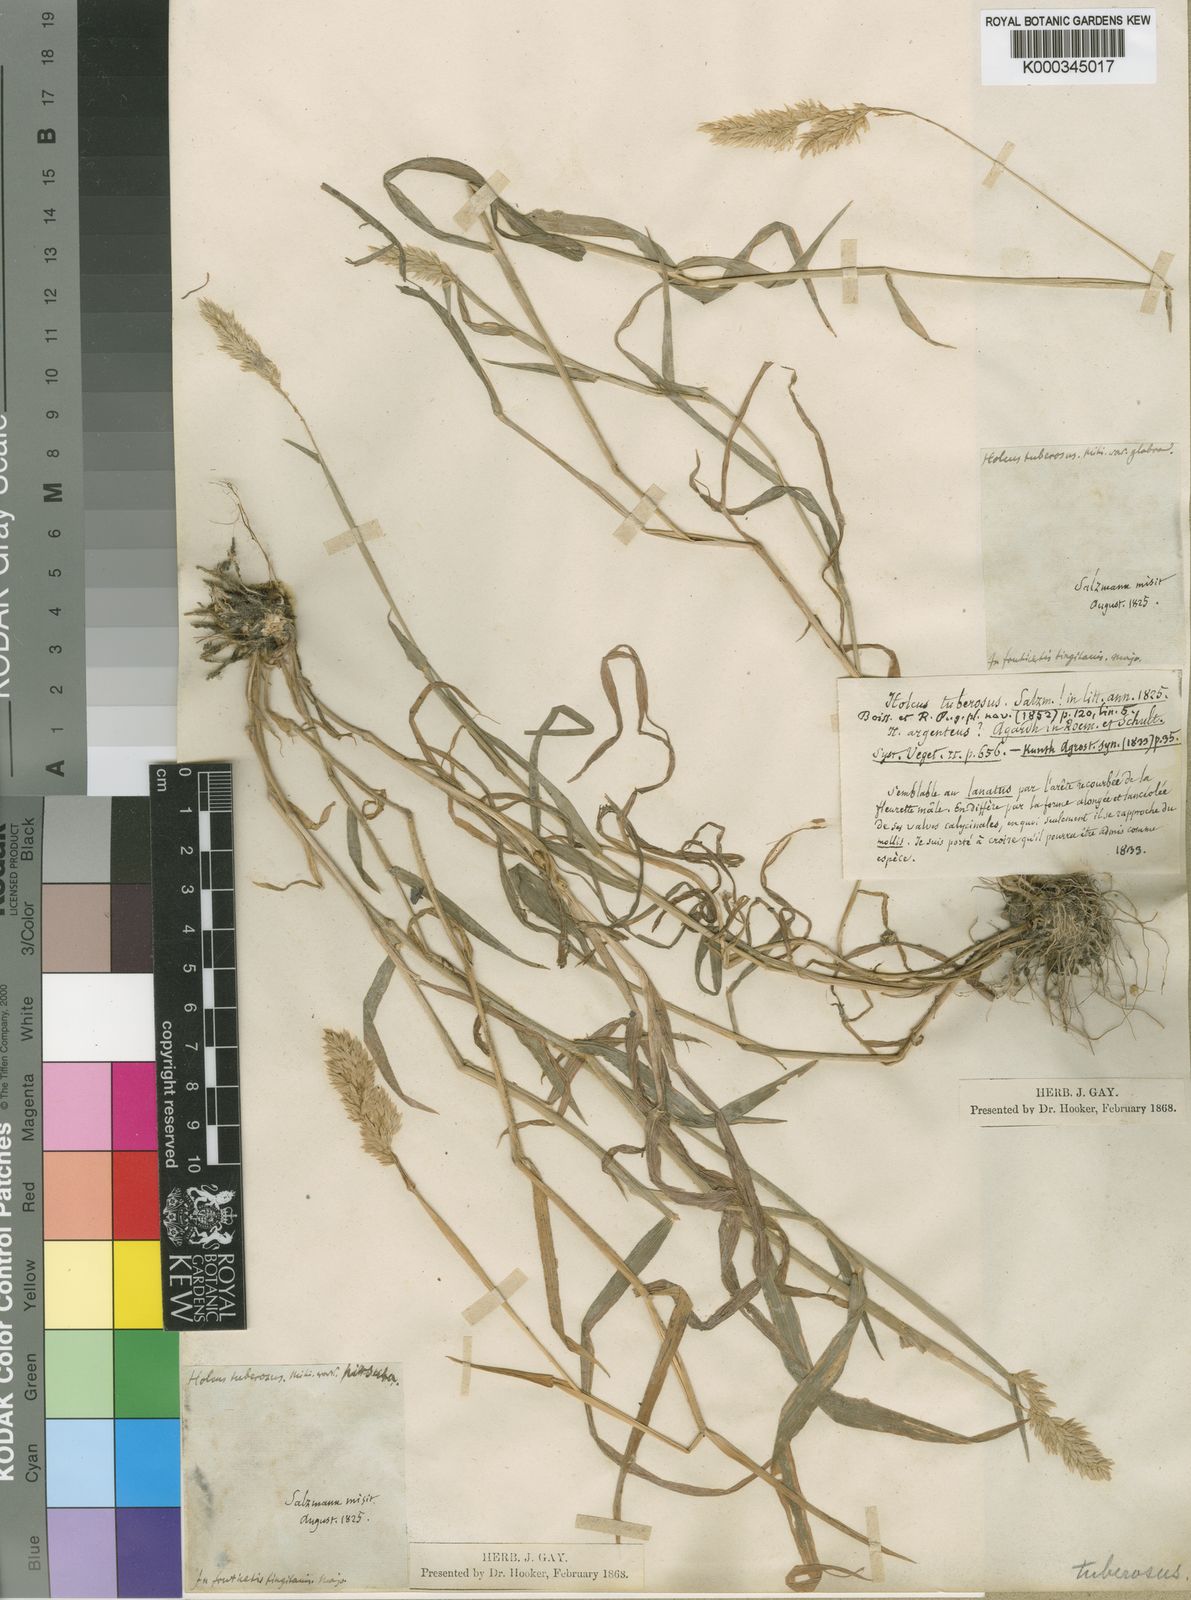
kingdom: Plantae
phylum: Tracheophyta
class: Liliopsida
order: Poales
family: Poaceae
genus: Holcus
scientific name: Holcus lanatus
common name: Yorkshire-fog
